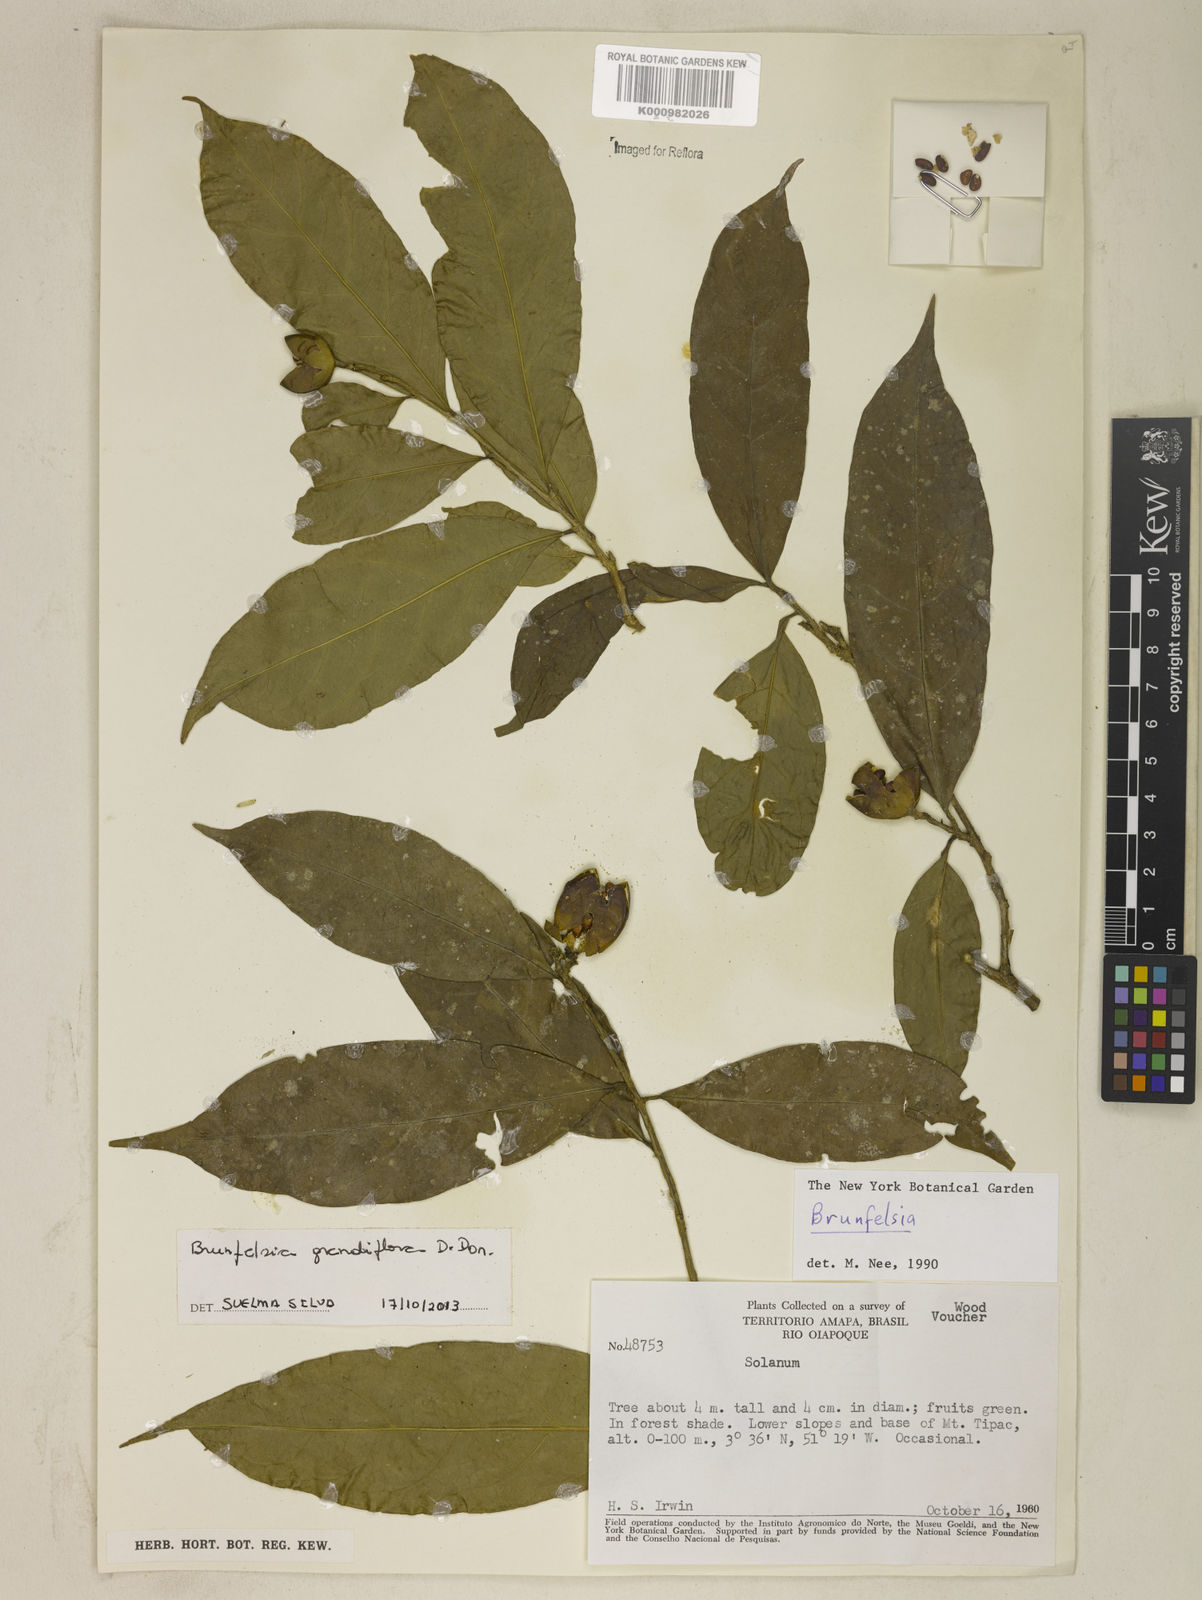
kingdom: Plantae
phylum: Tracheophyta
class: Magnoliopsida
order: Solanales
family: Solanaceae
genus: Brunfelsia
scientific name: Brunfelsia grandiflora
